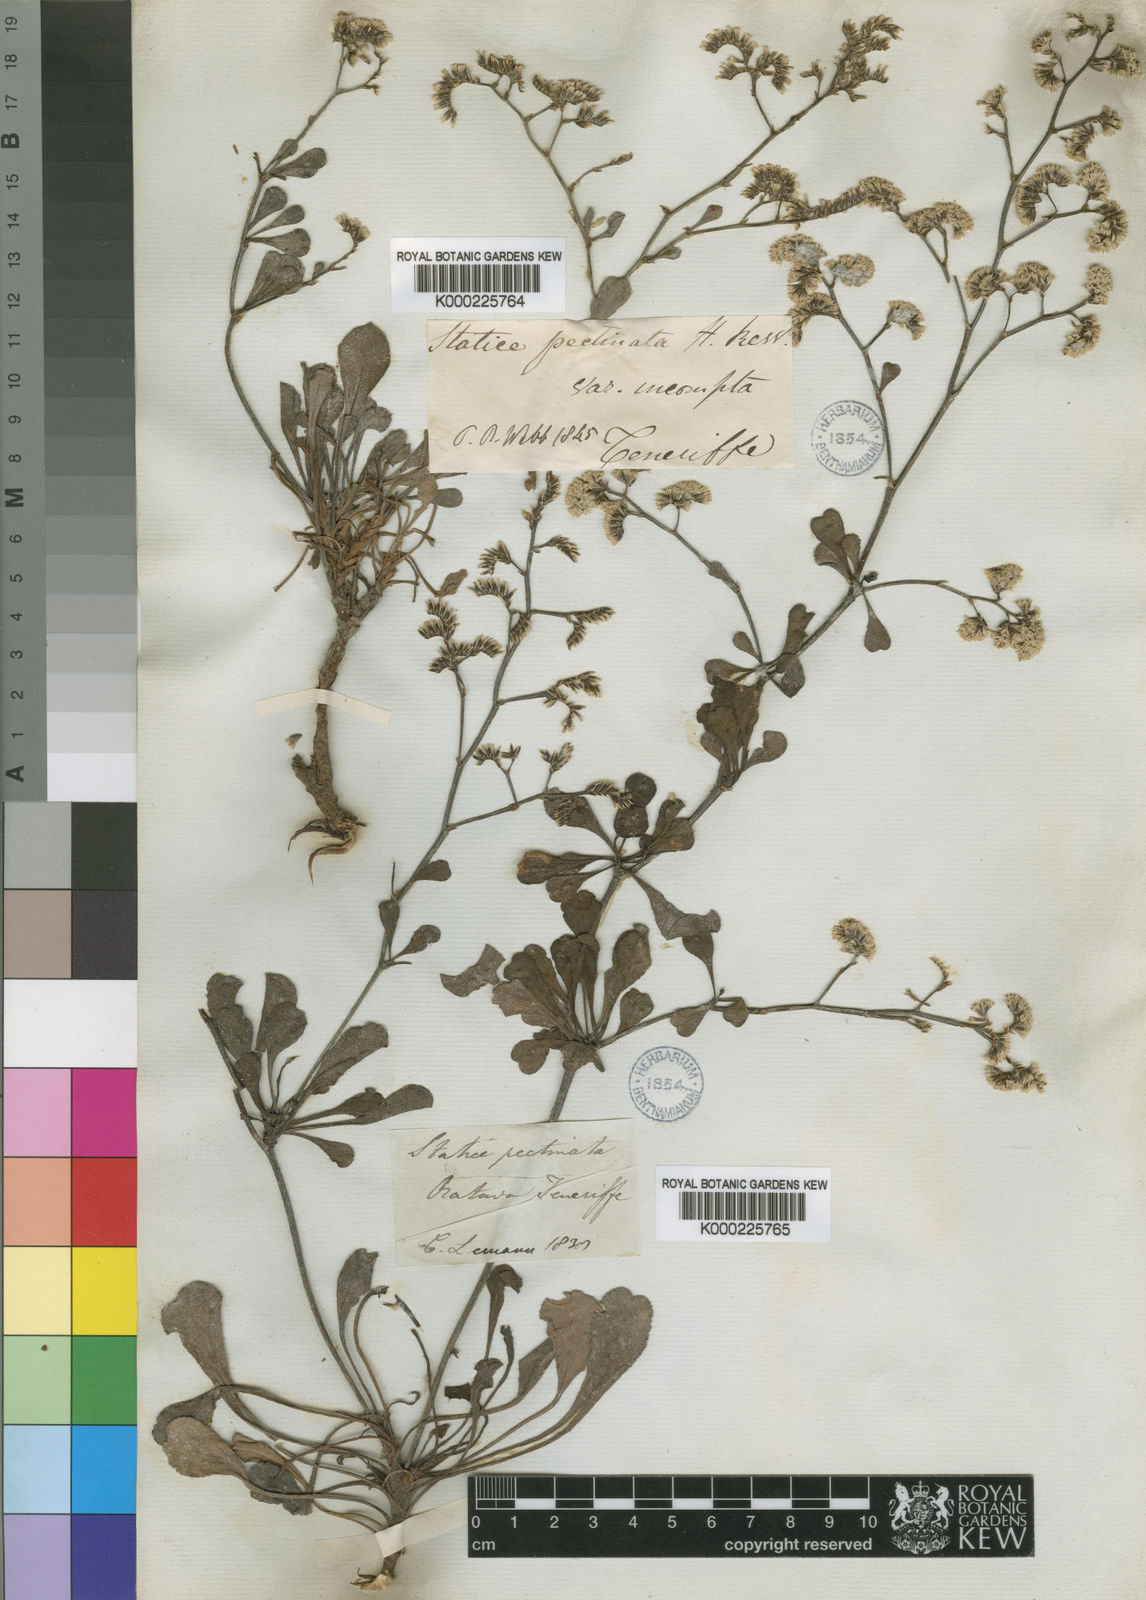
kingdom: Plantae
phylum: Tracheophyta
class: Magnoliopsida
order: Caryophyllales
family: Plumbaginaceae
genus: Limonium
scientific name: Limonium pectinatum
